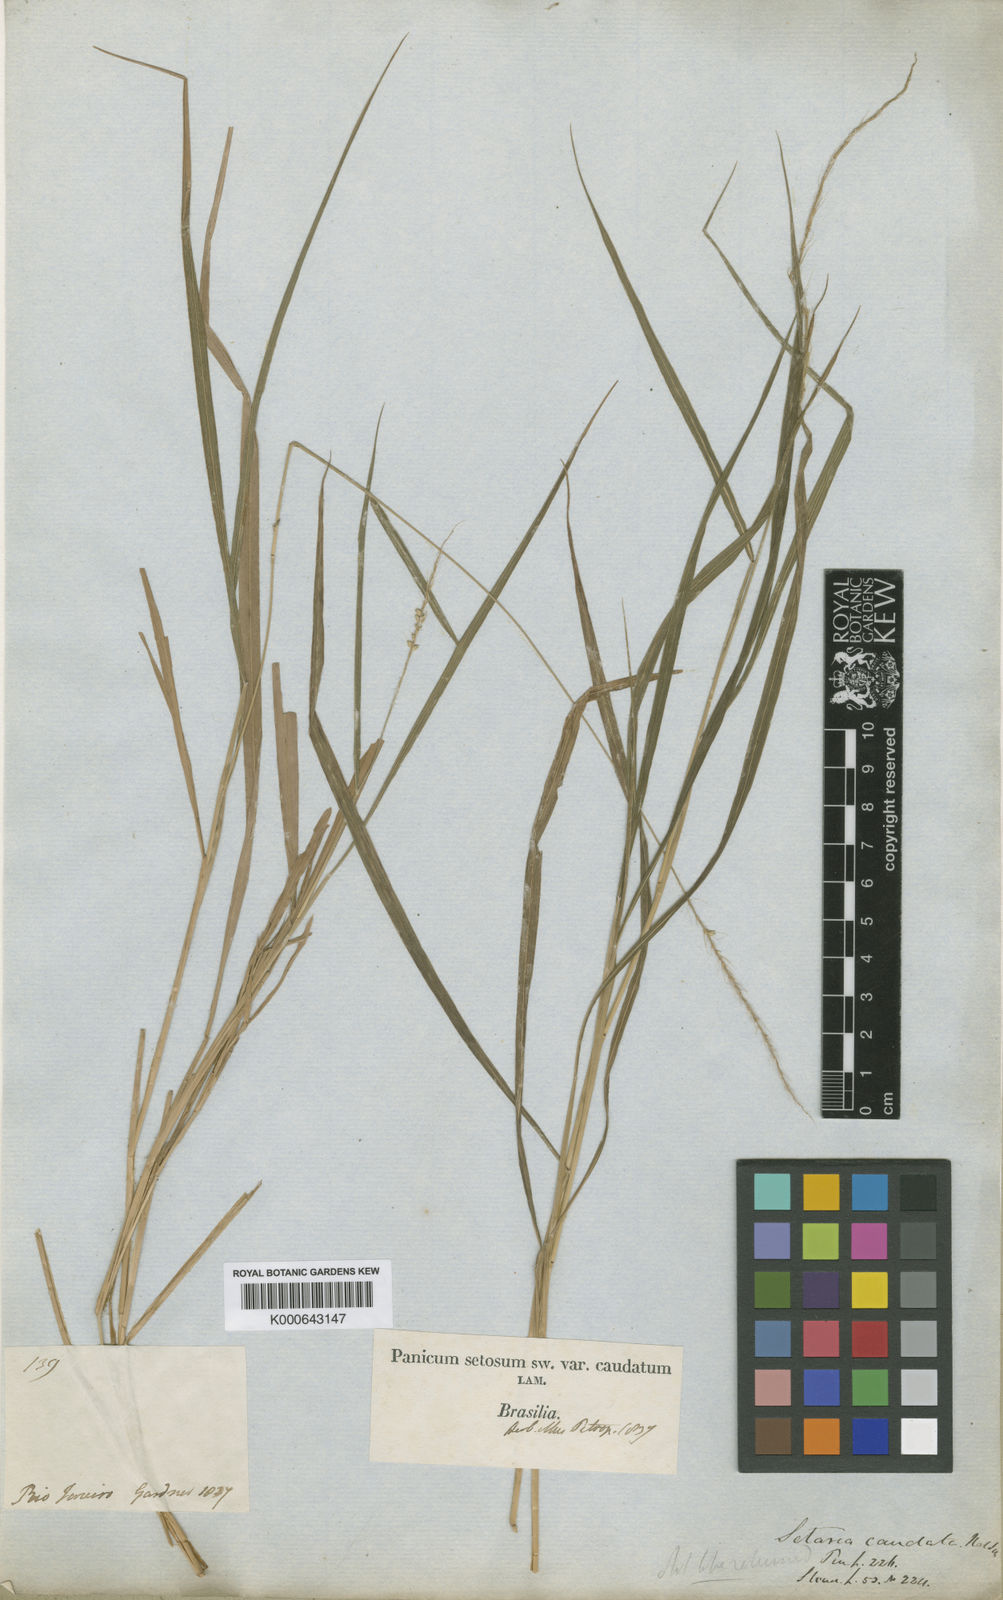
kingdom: Plantae
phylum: Tracheophyta
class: Liliopsida
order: Poales
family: Poaceae
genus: Setaria
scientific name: Setaria setosa
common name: West indies bristle grass
